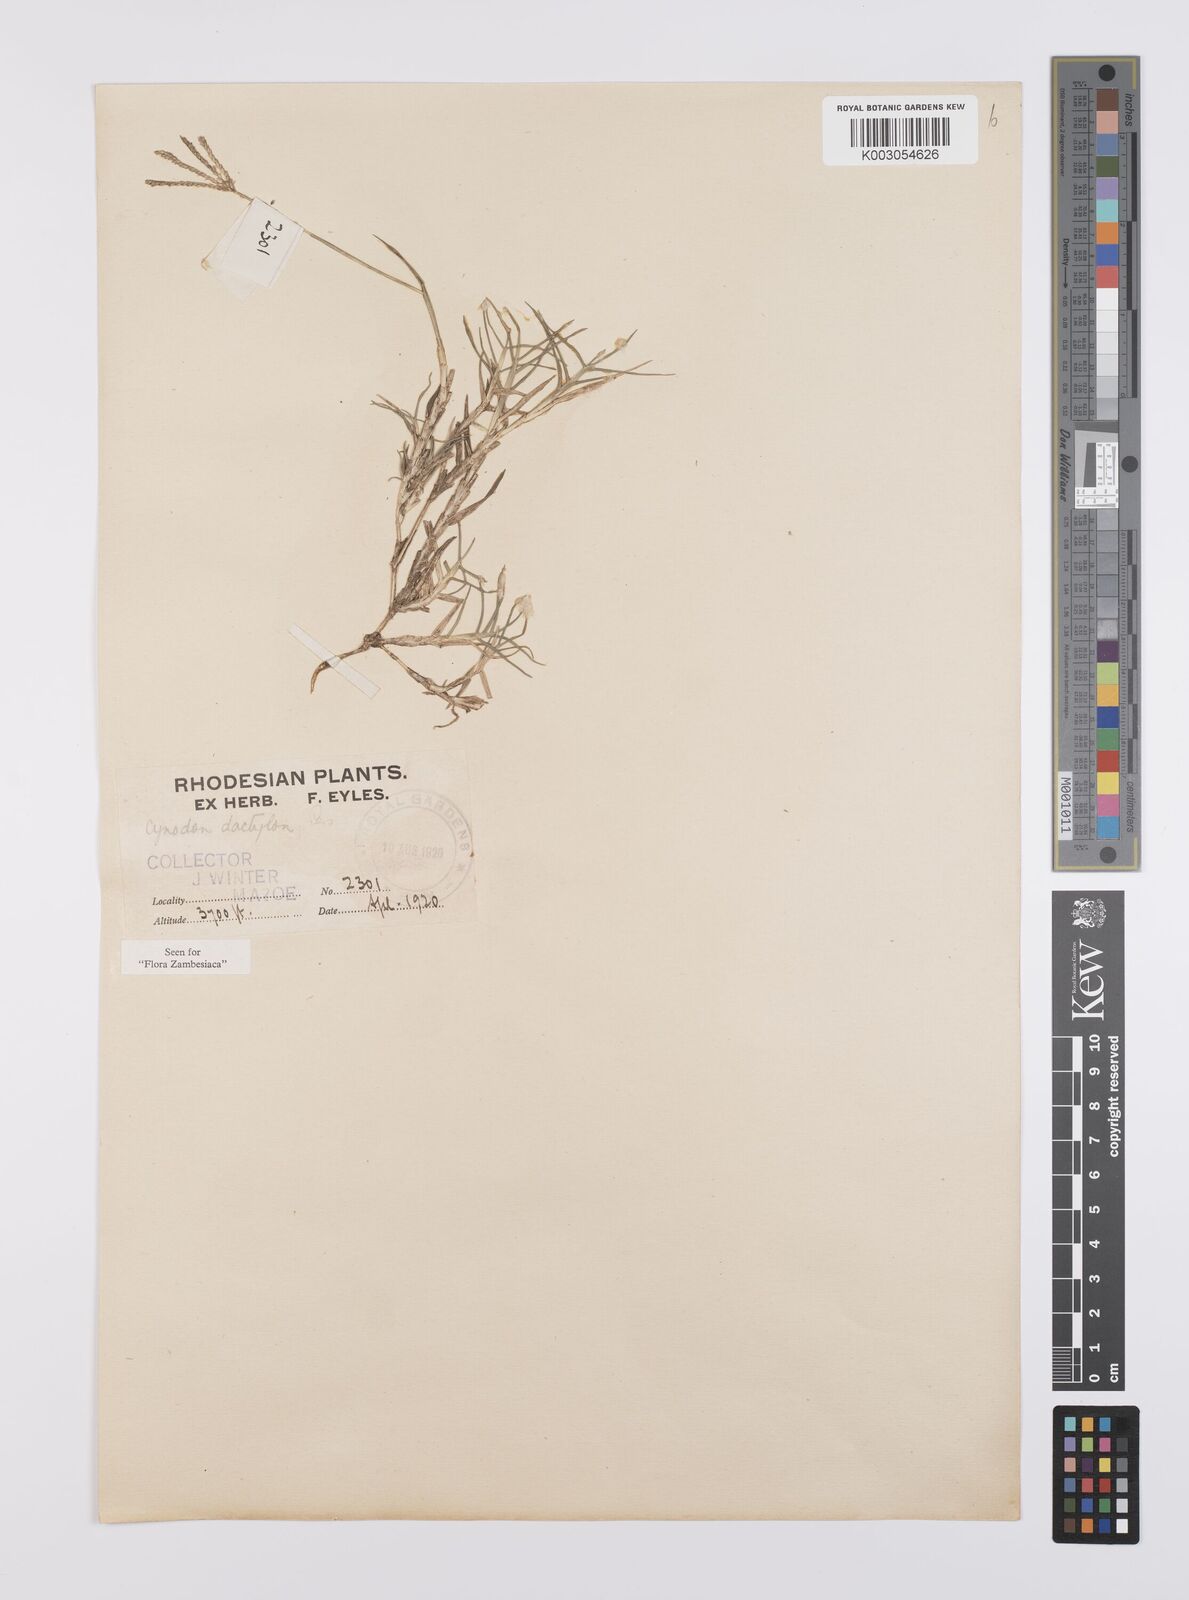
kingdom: Plantae
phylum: Tracheophyta
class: Liliopsida
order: Poales
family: Poaceae
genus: Cynodon
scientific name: Cynodon dactylon
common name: Bermuda grass
